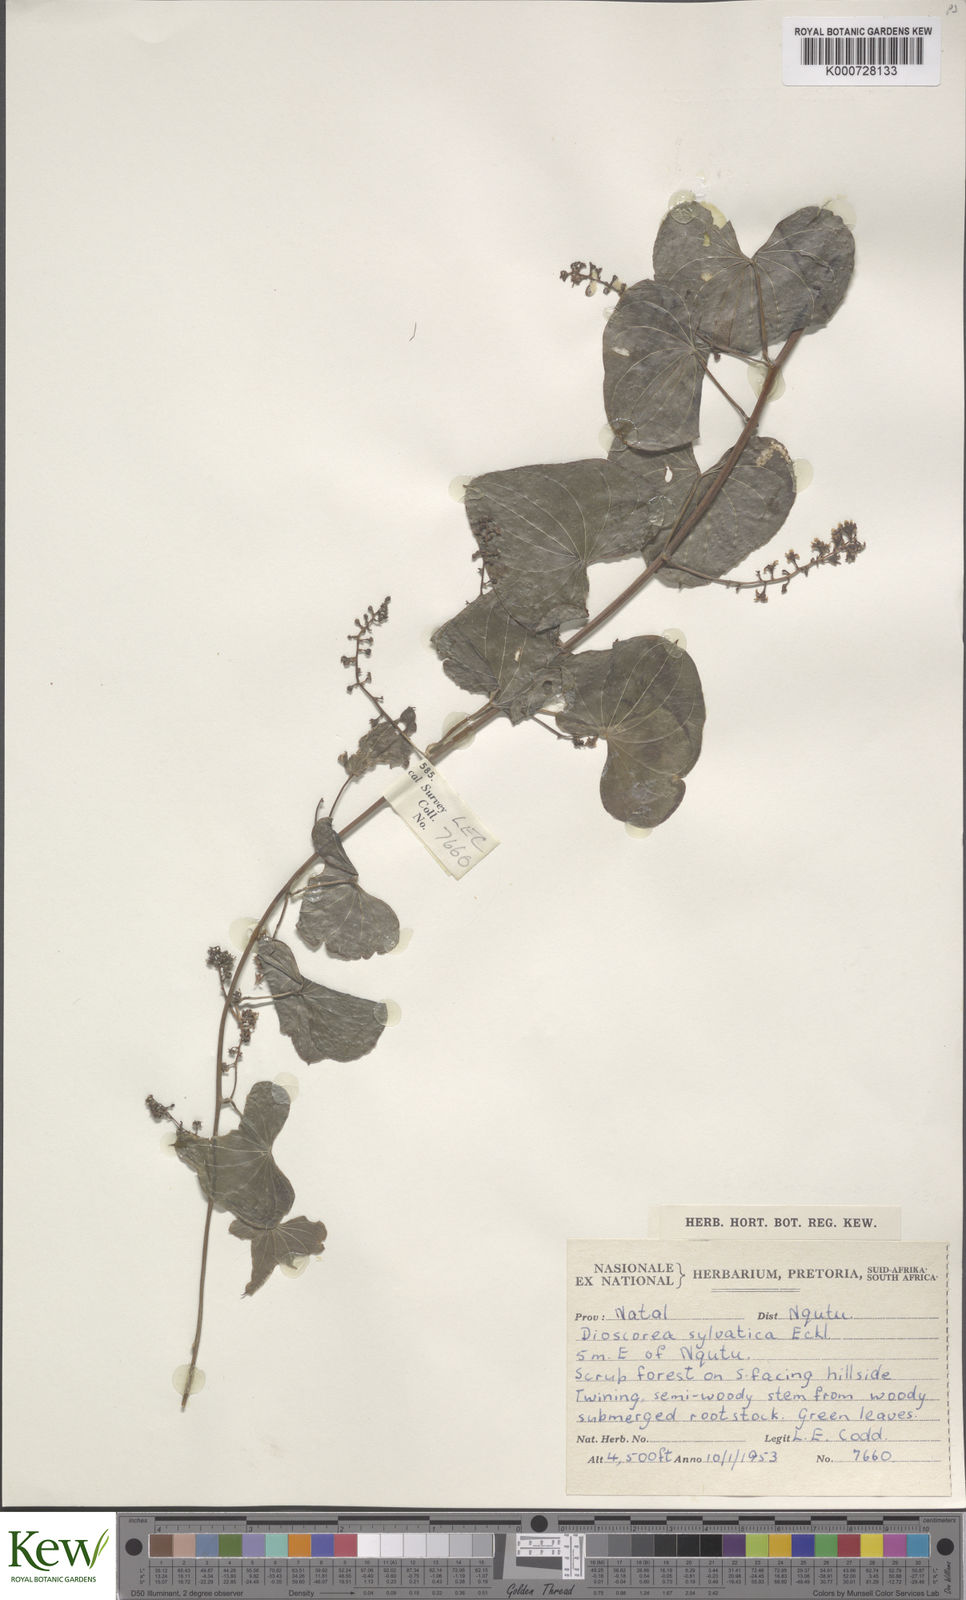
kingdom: Plantae
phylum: Tracheophyta
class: Liliopsida
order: Dioscoreales
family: Dioscoreaceae
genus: Dioscorea
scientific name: Dioscorea sylvatica
